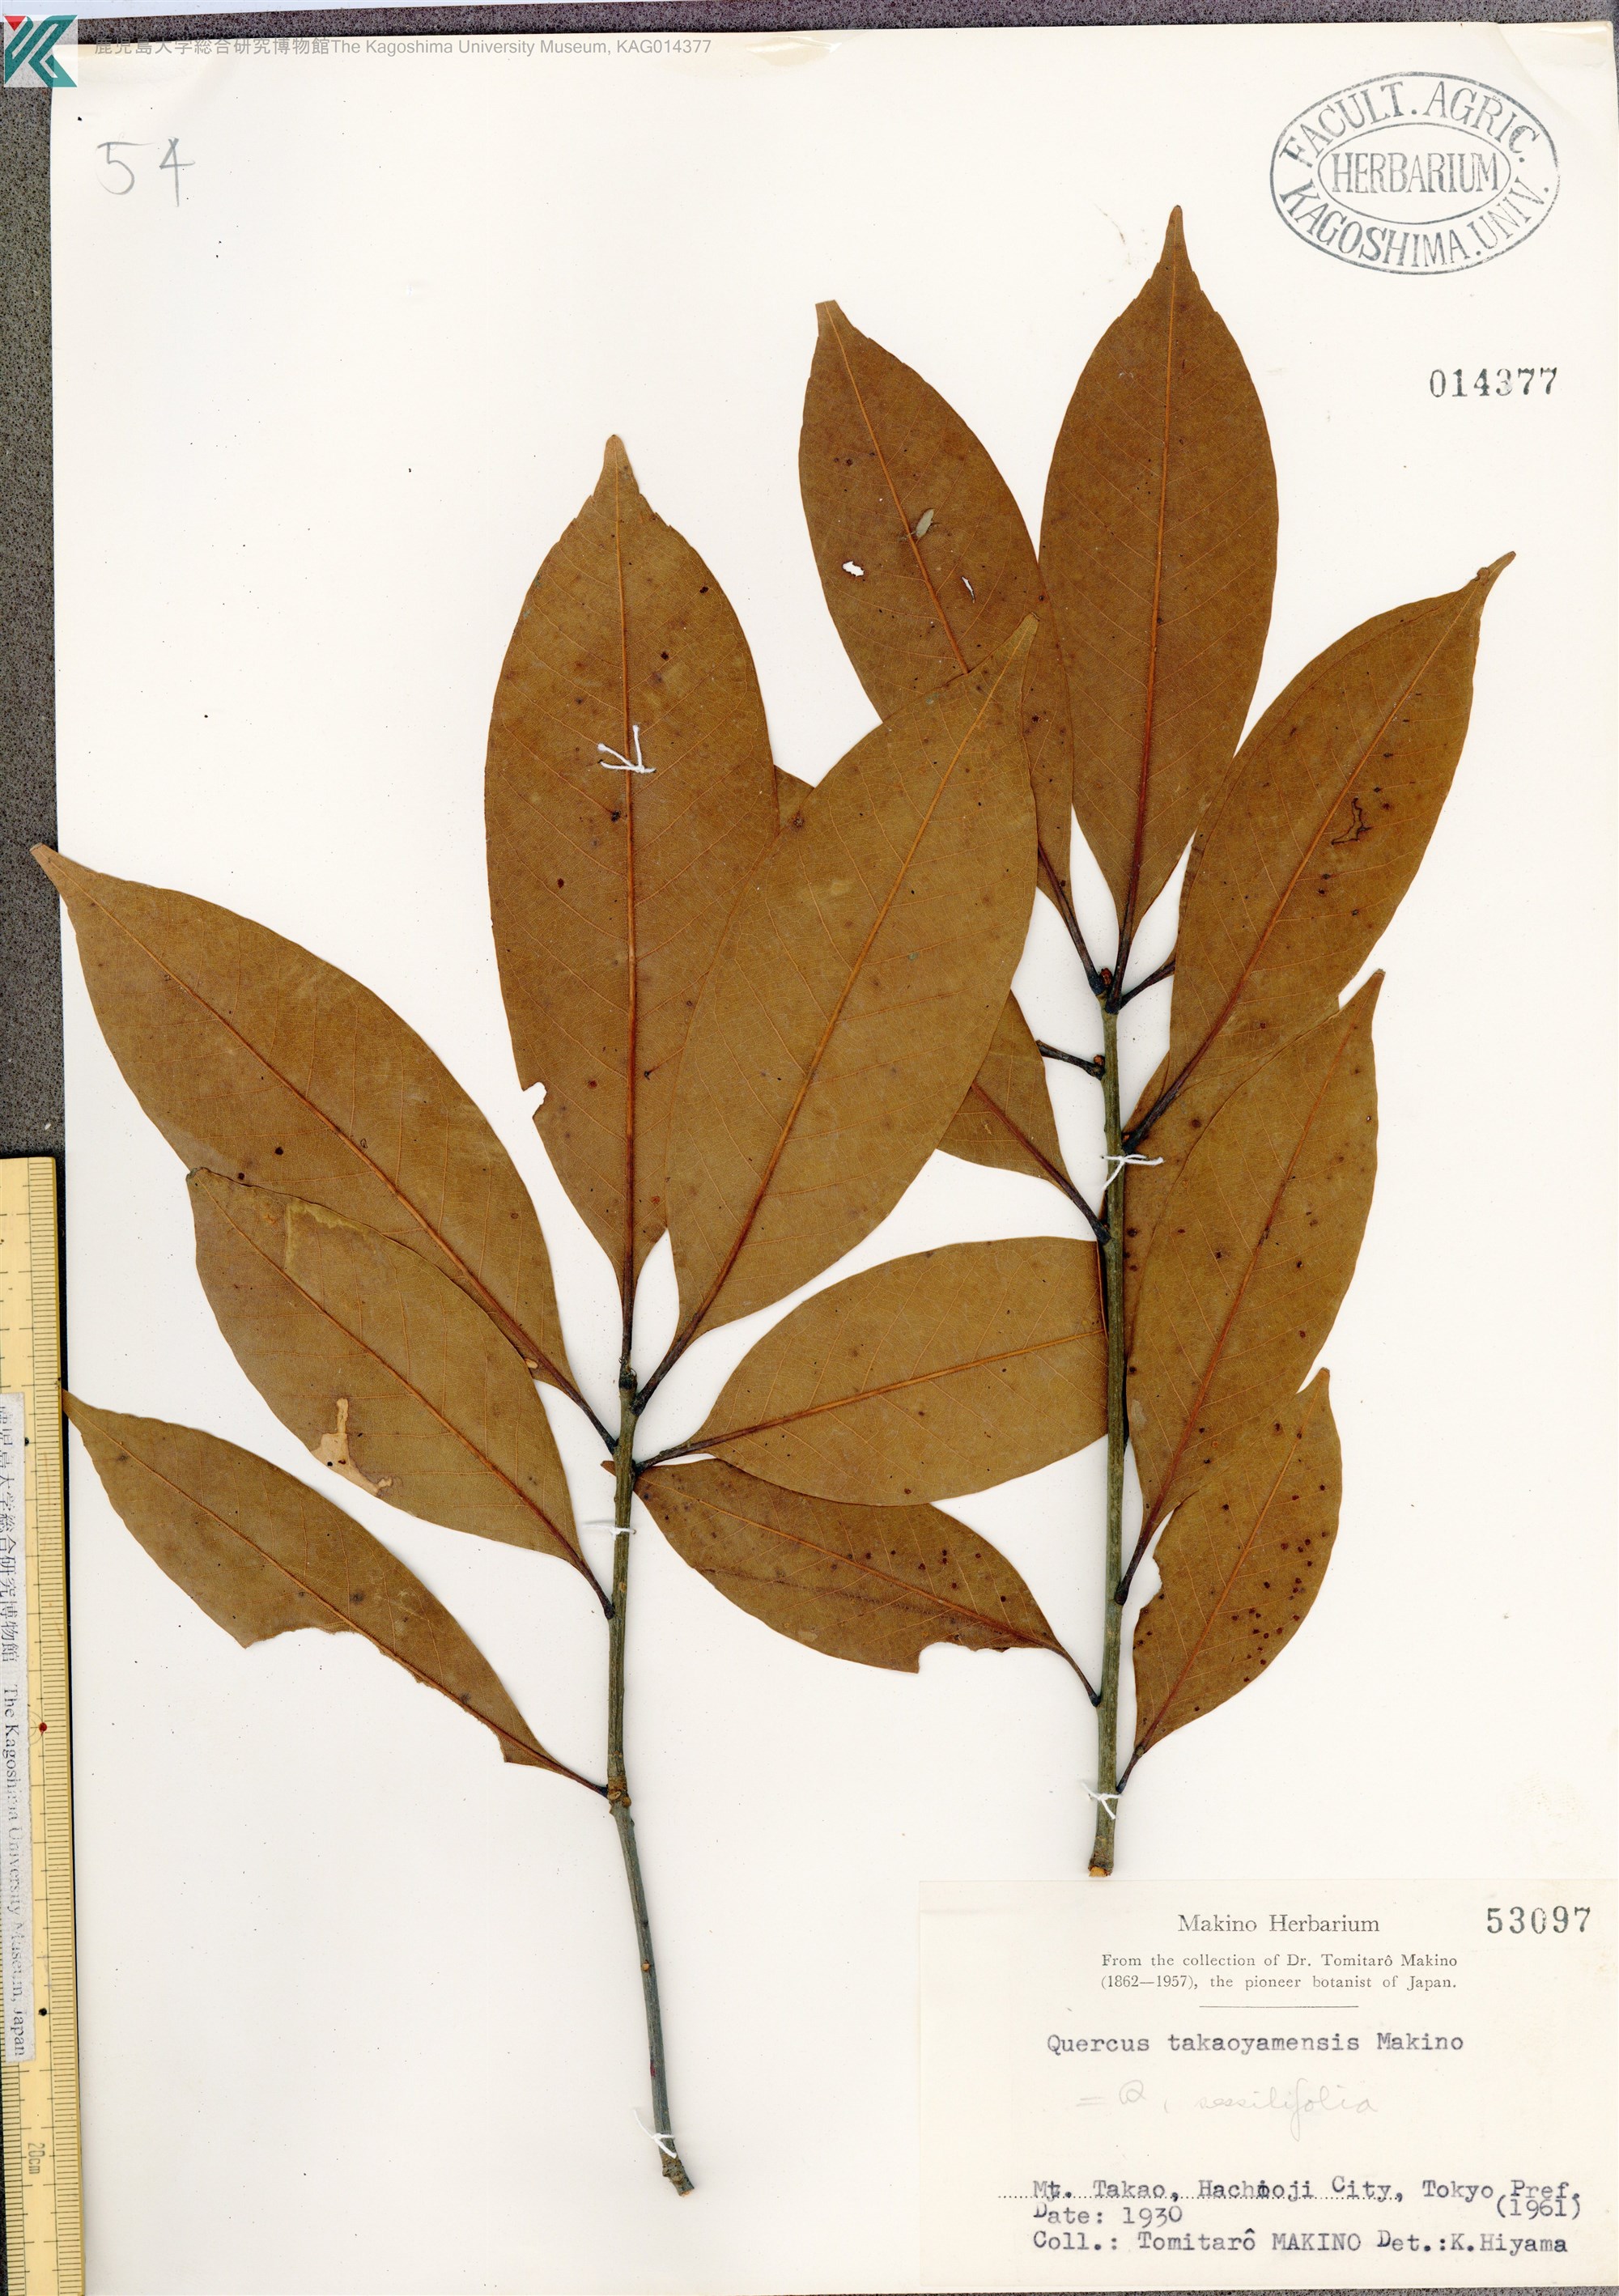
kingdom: Plantae
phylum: Tracheophyta
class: Magnoliopsida
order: Fagales
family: Fagaceae
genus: Quercus
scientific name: Quercus takaoyamensis
